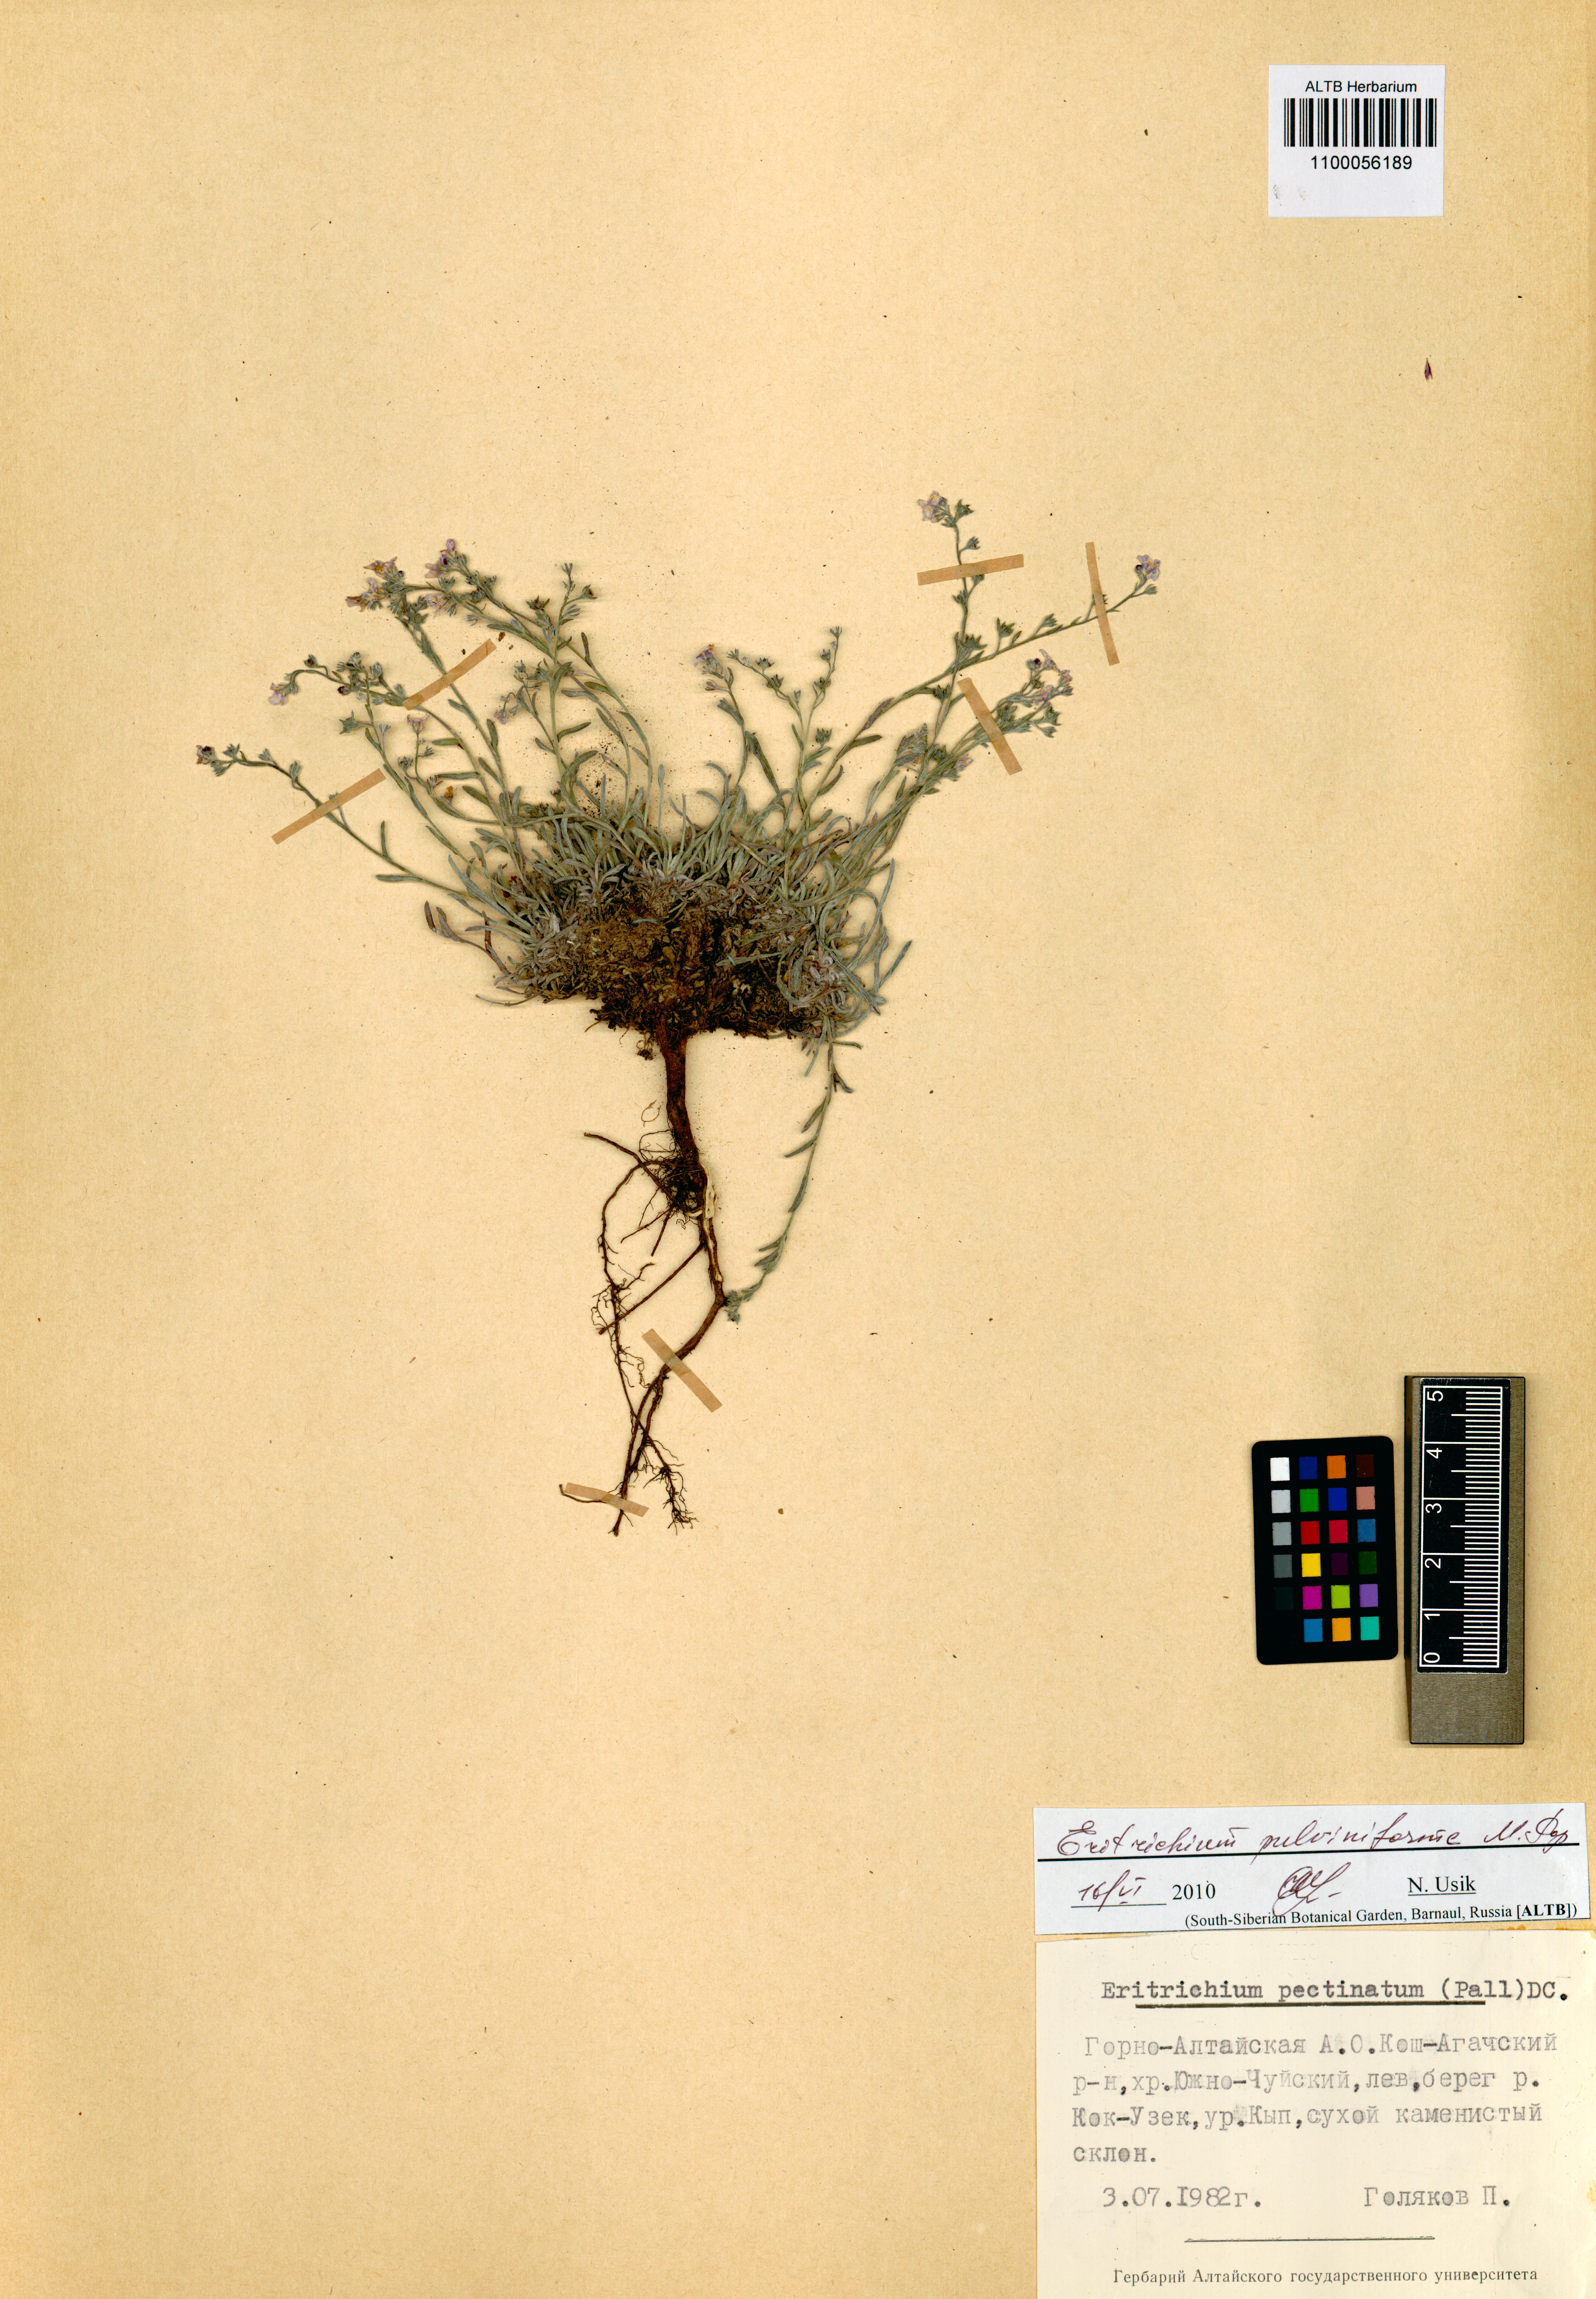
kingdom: Plantae
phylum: Tracheophyta
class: Magnoliopsida
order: Boraginales
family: Boraginaceae
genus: Eritrichium
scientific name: Eritrichium pauciflorum
